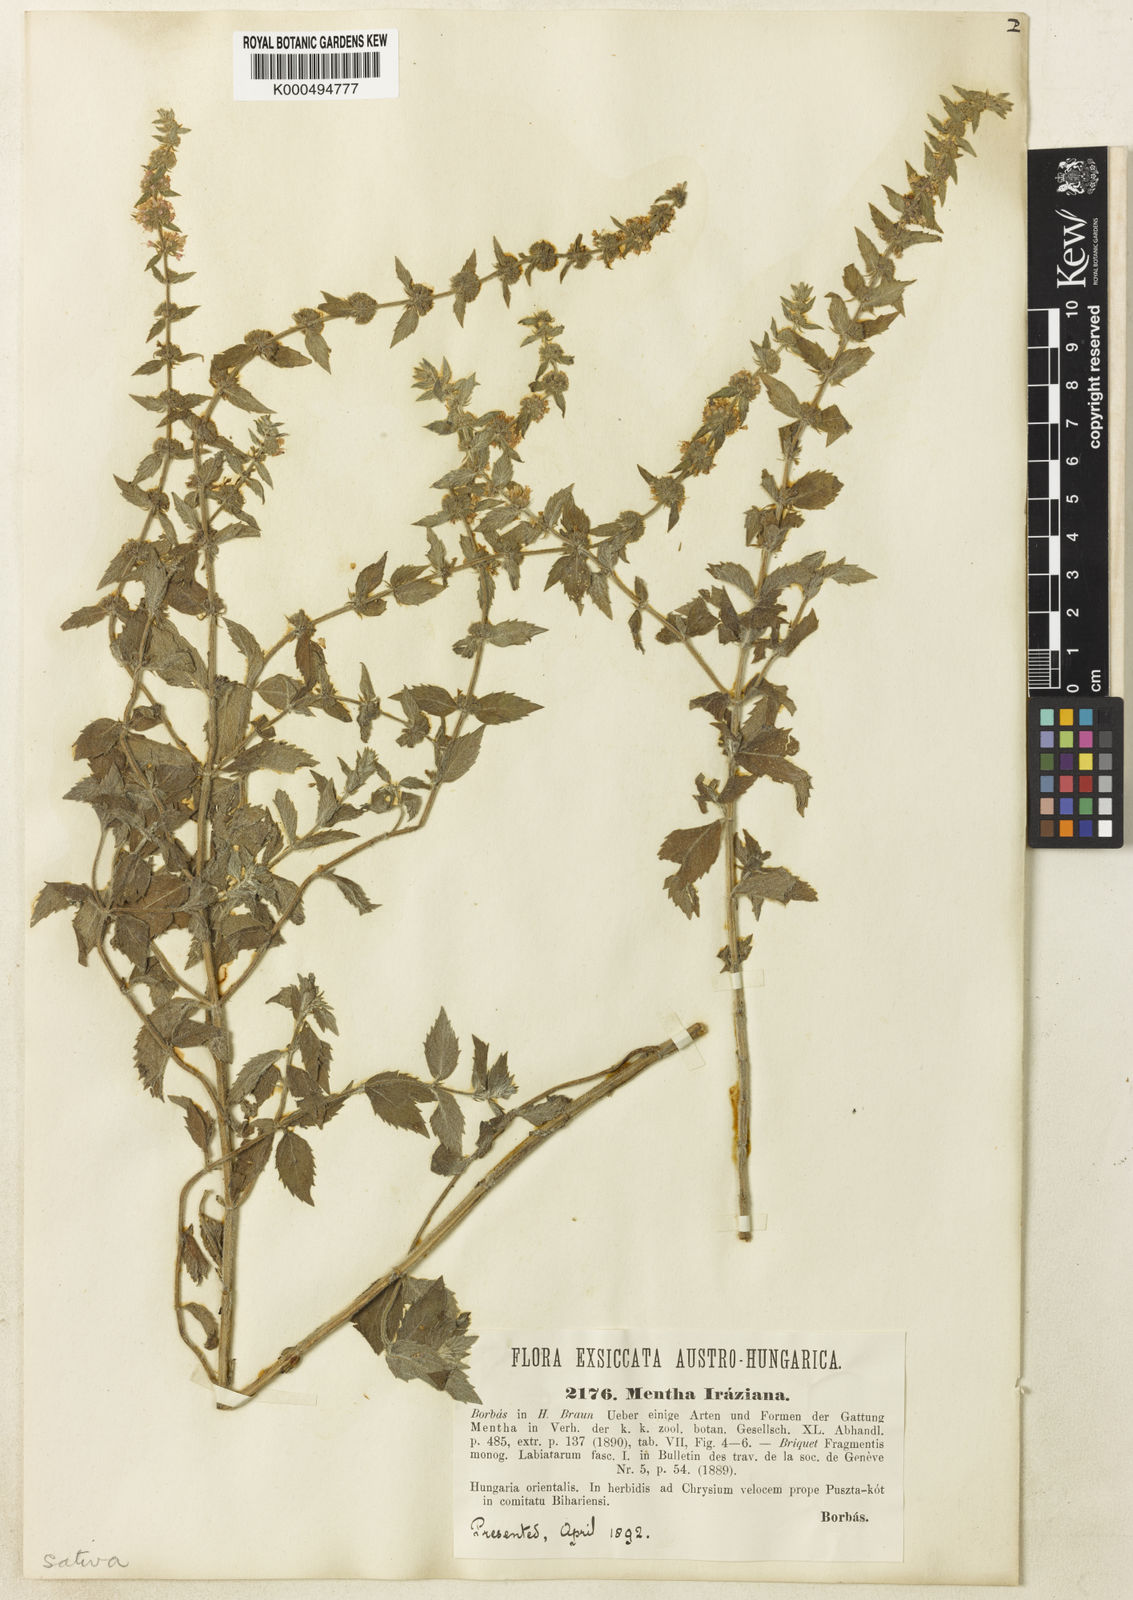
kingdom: Plantae
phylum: Tracheophyta
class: Magnoliopsida
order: Lamiales
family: Lamiaceae
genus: Mentha
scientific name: Mentha dalmatica
